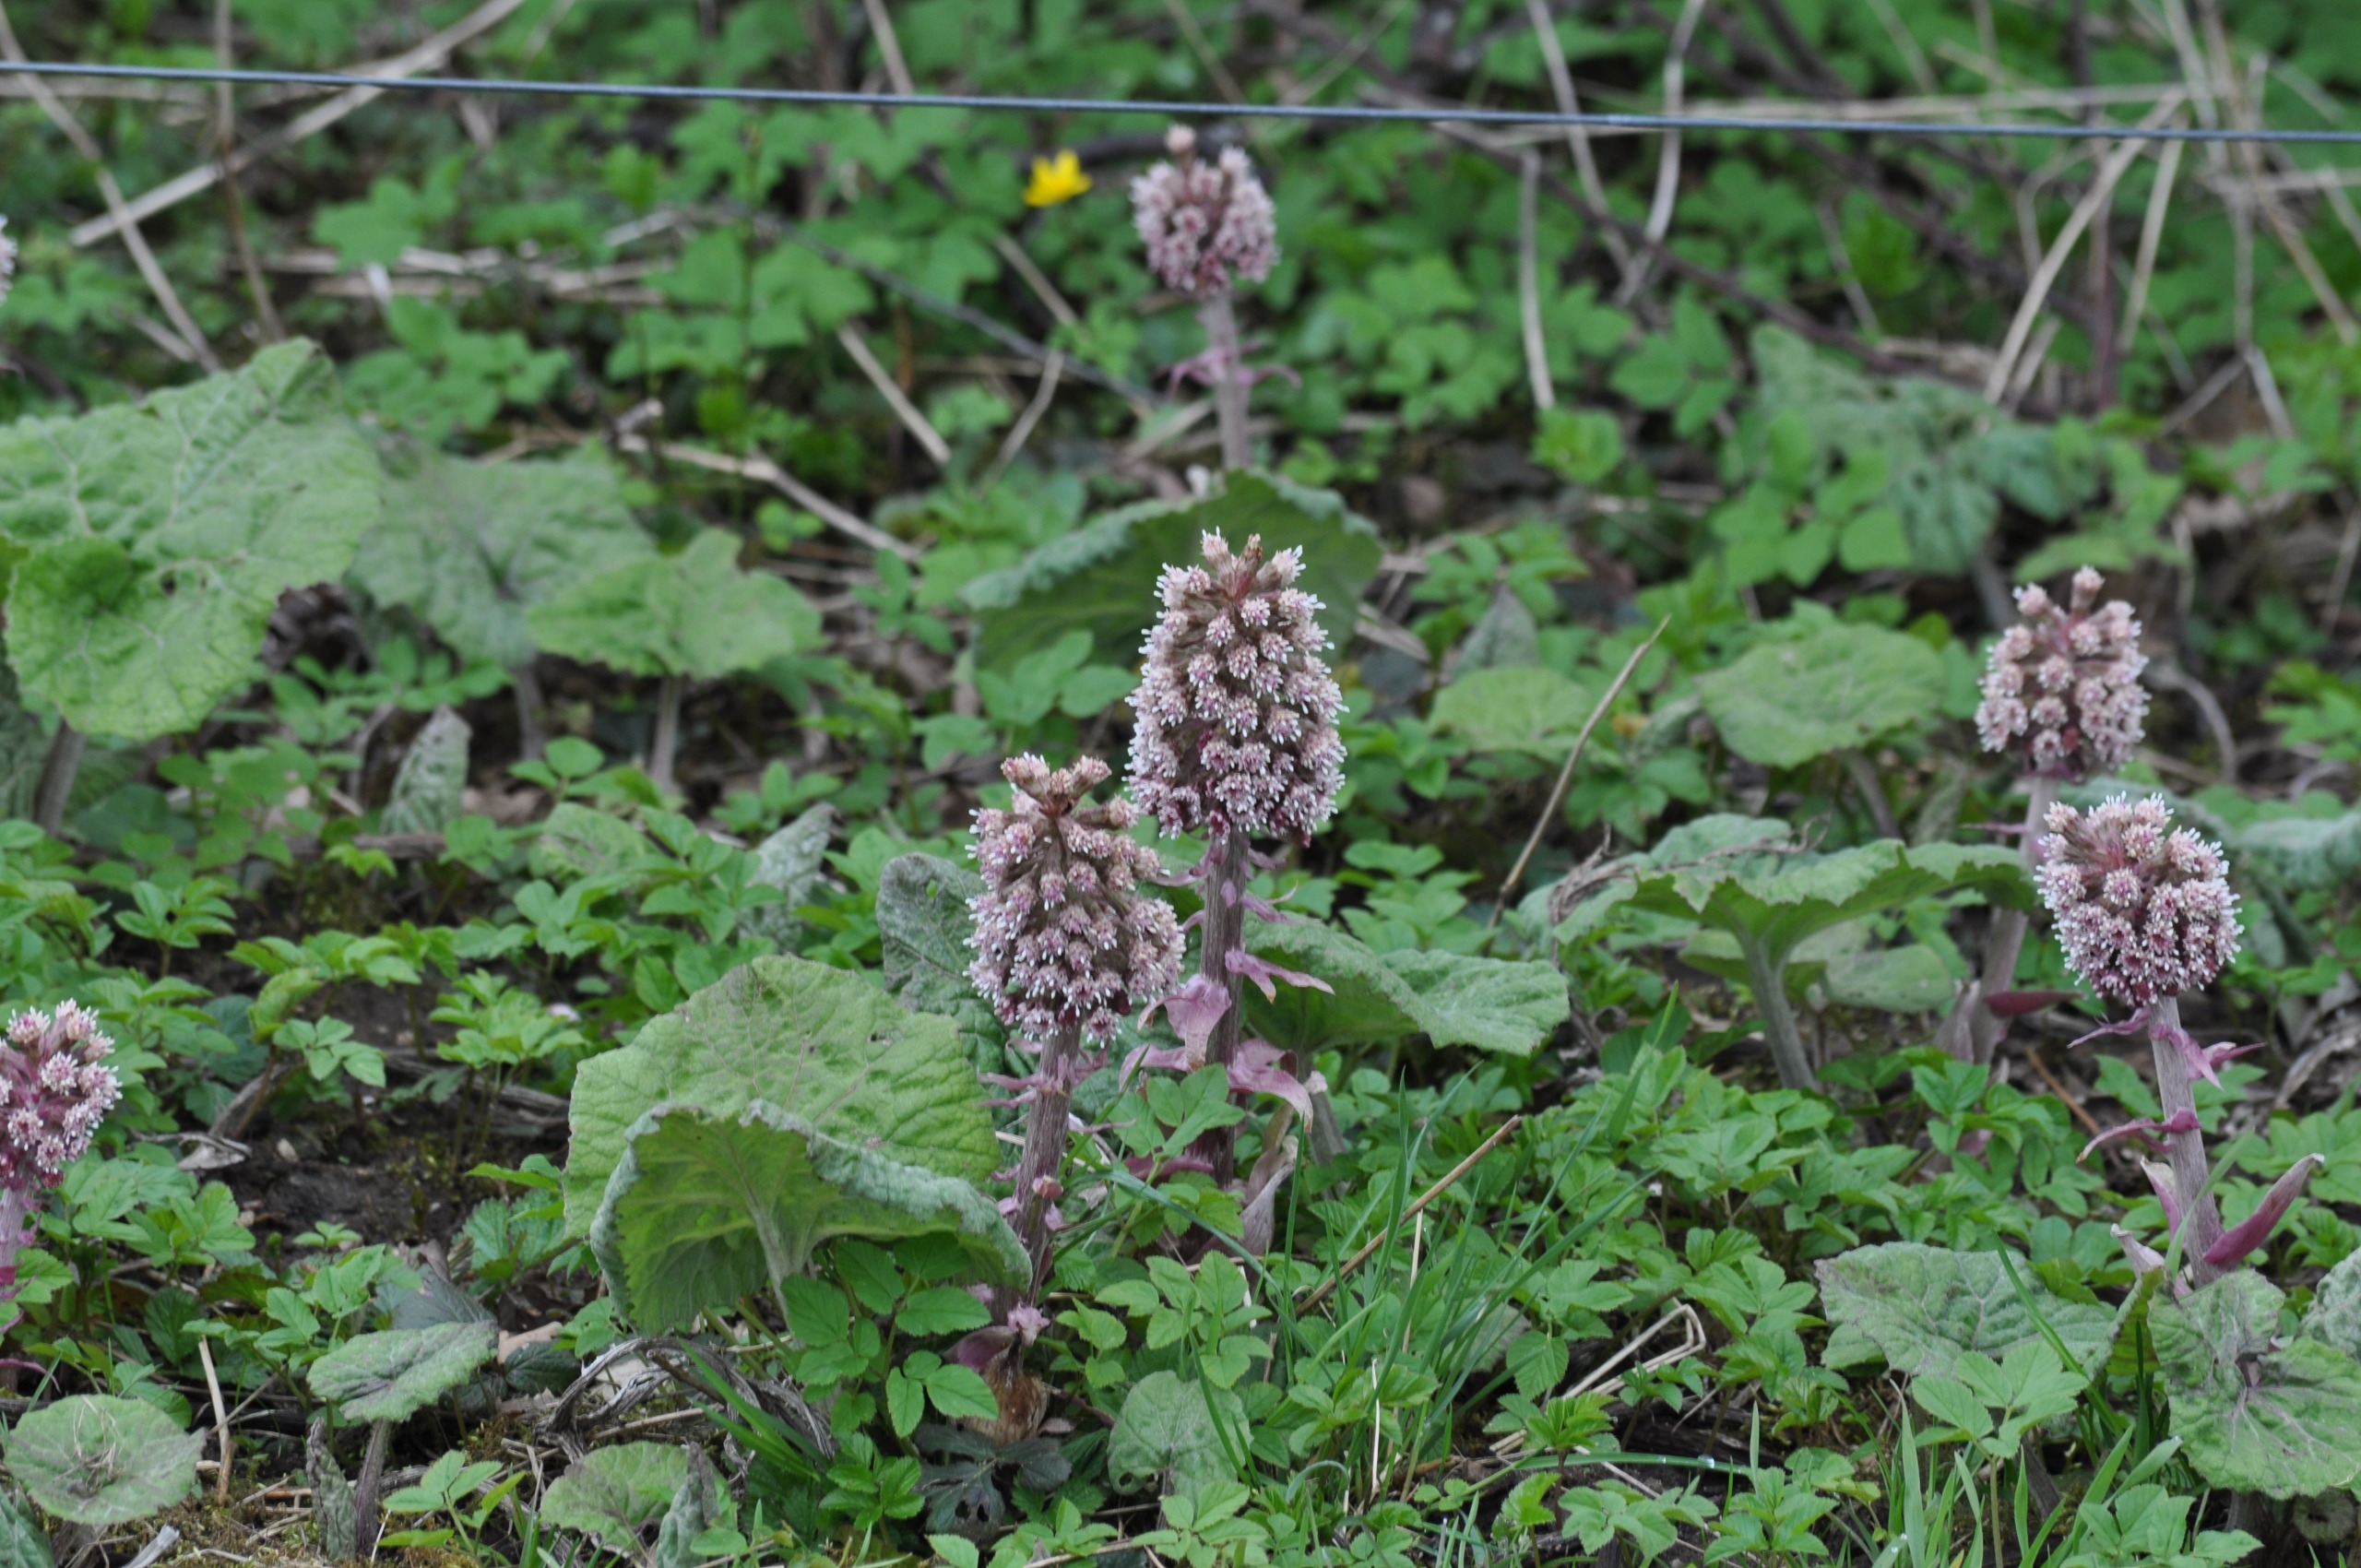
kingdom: Plantae
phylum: Tracheophyta
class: Magnoliopsida
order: Asterales
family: Asteraceae
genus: Petasites
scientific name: Petasites hybridus
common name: Rød hestehov
